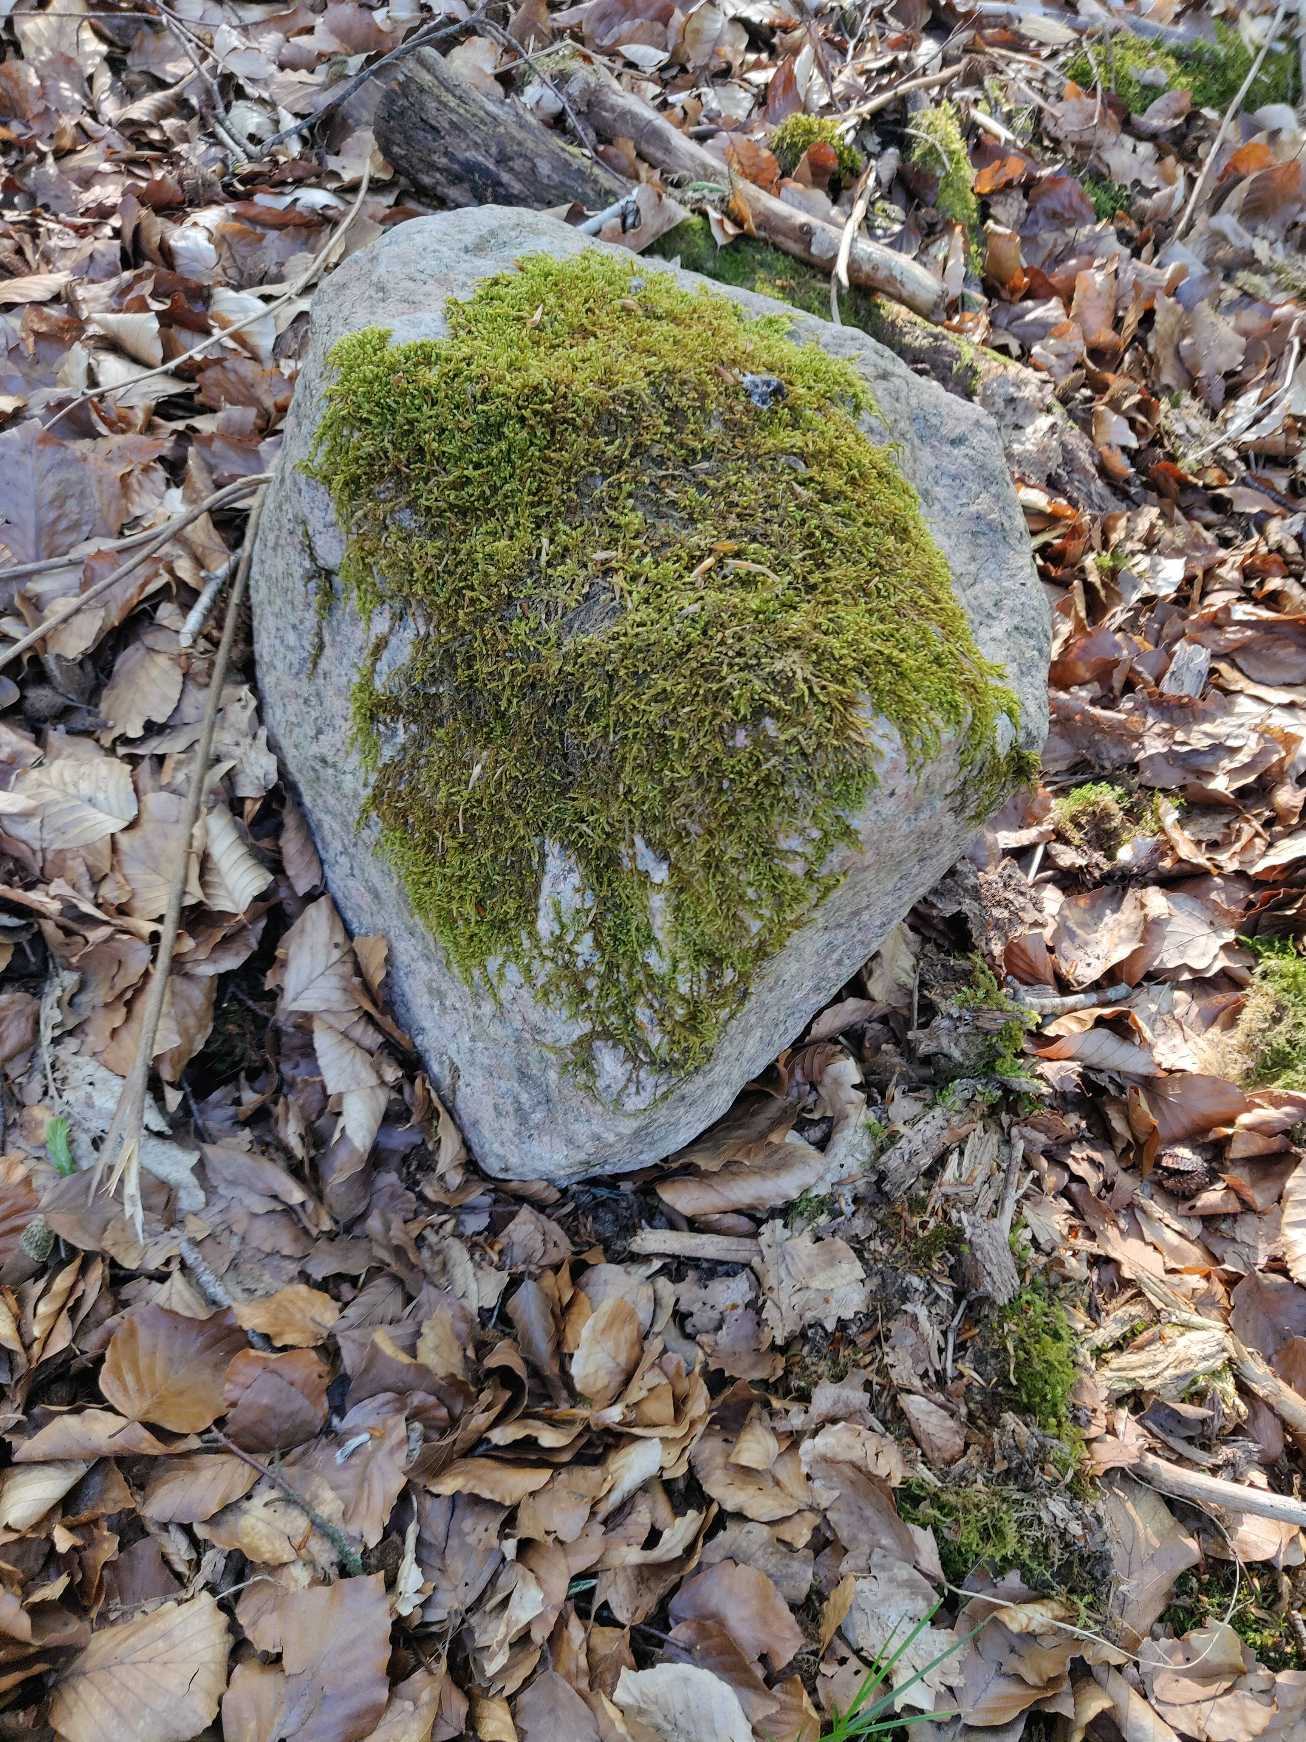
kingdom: Plantae
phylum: Bryophyta
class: Bryopsida
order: Hypnales
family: Hypnaceae
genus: Hypnum
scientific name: Hypnum cupressiforme
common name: Almindelig cypresmos
